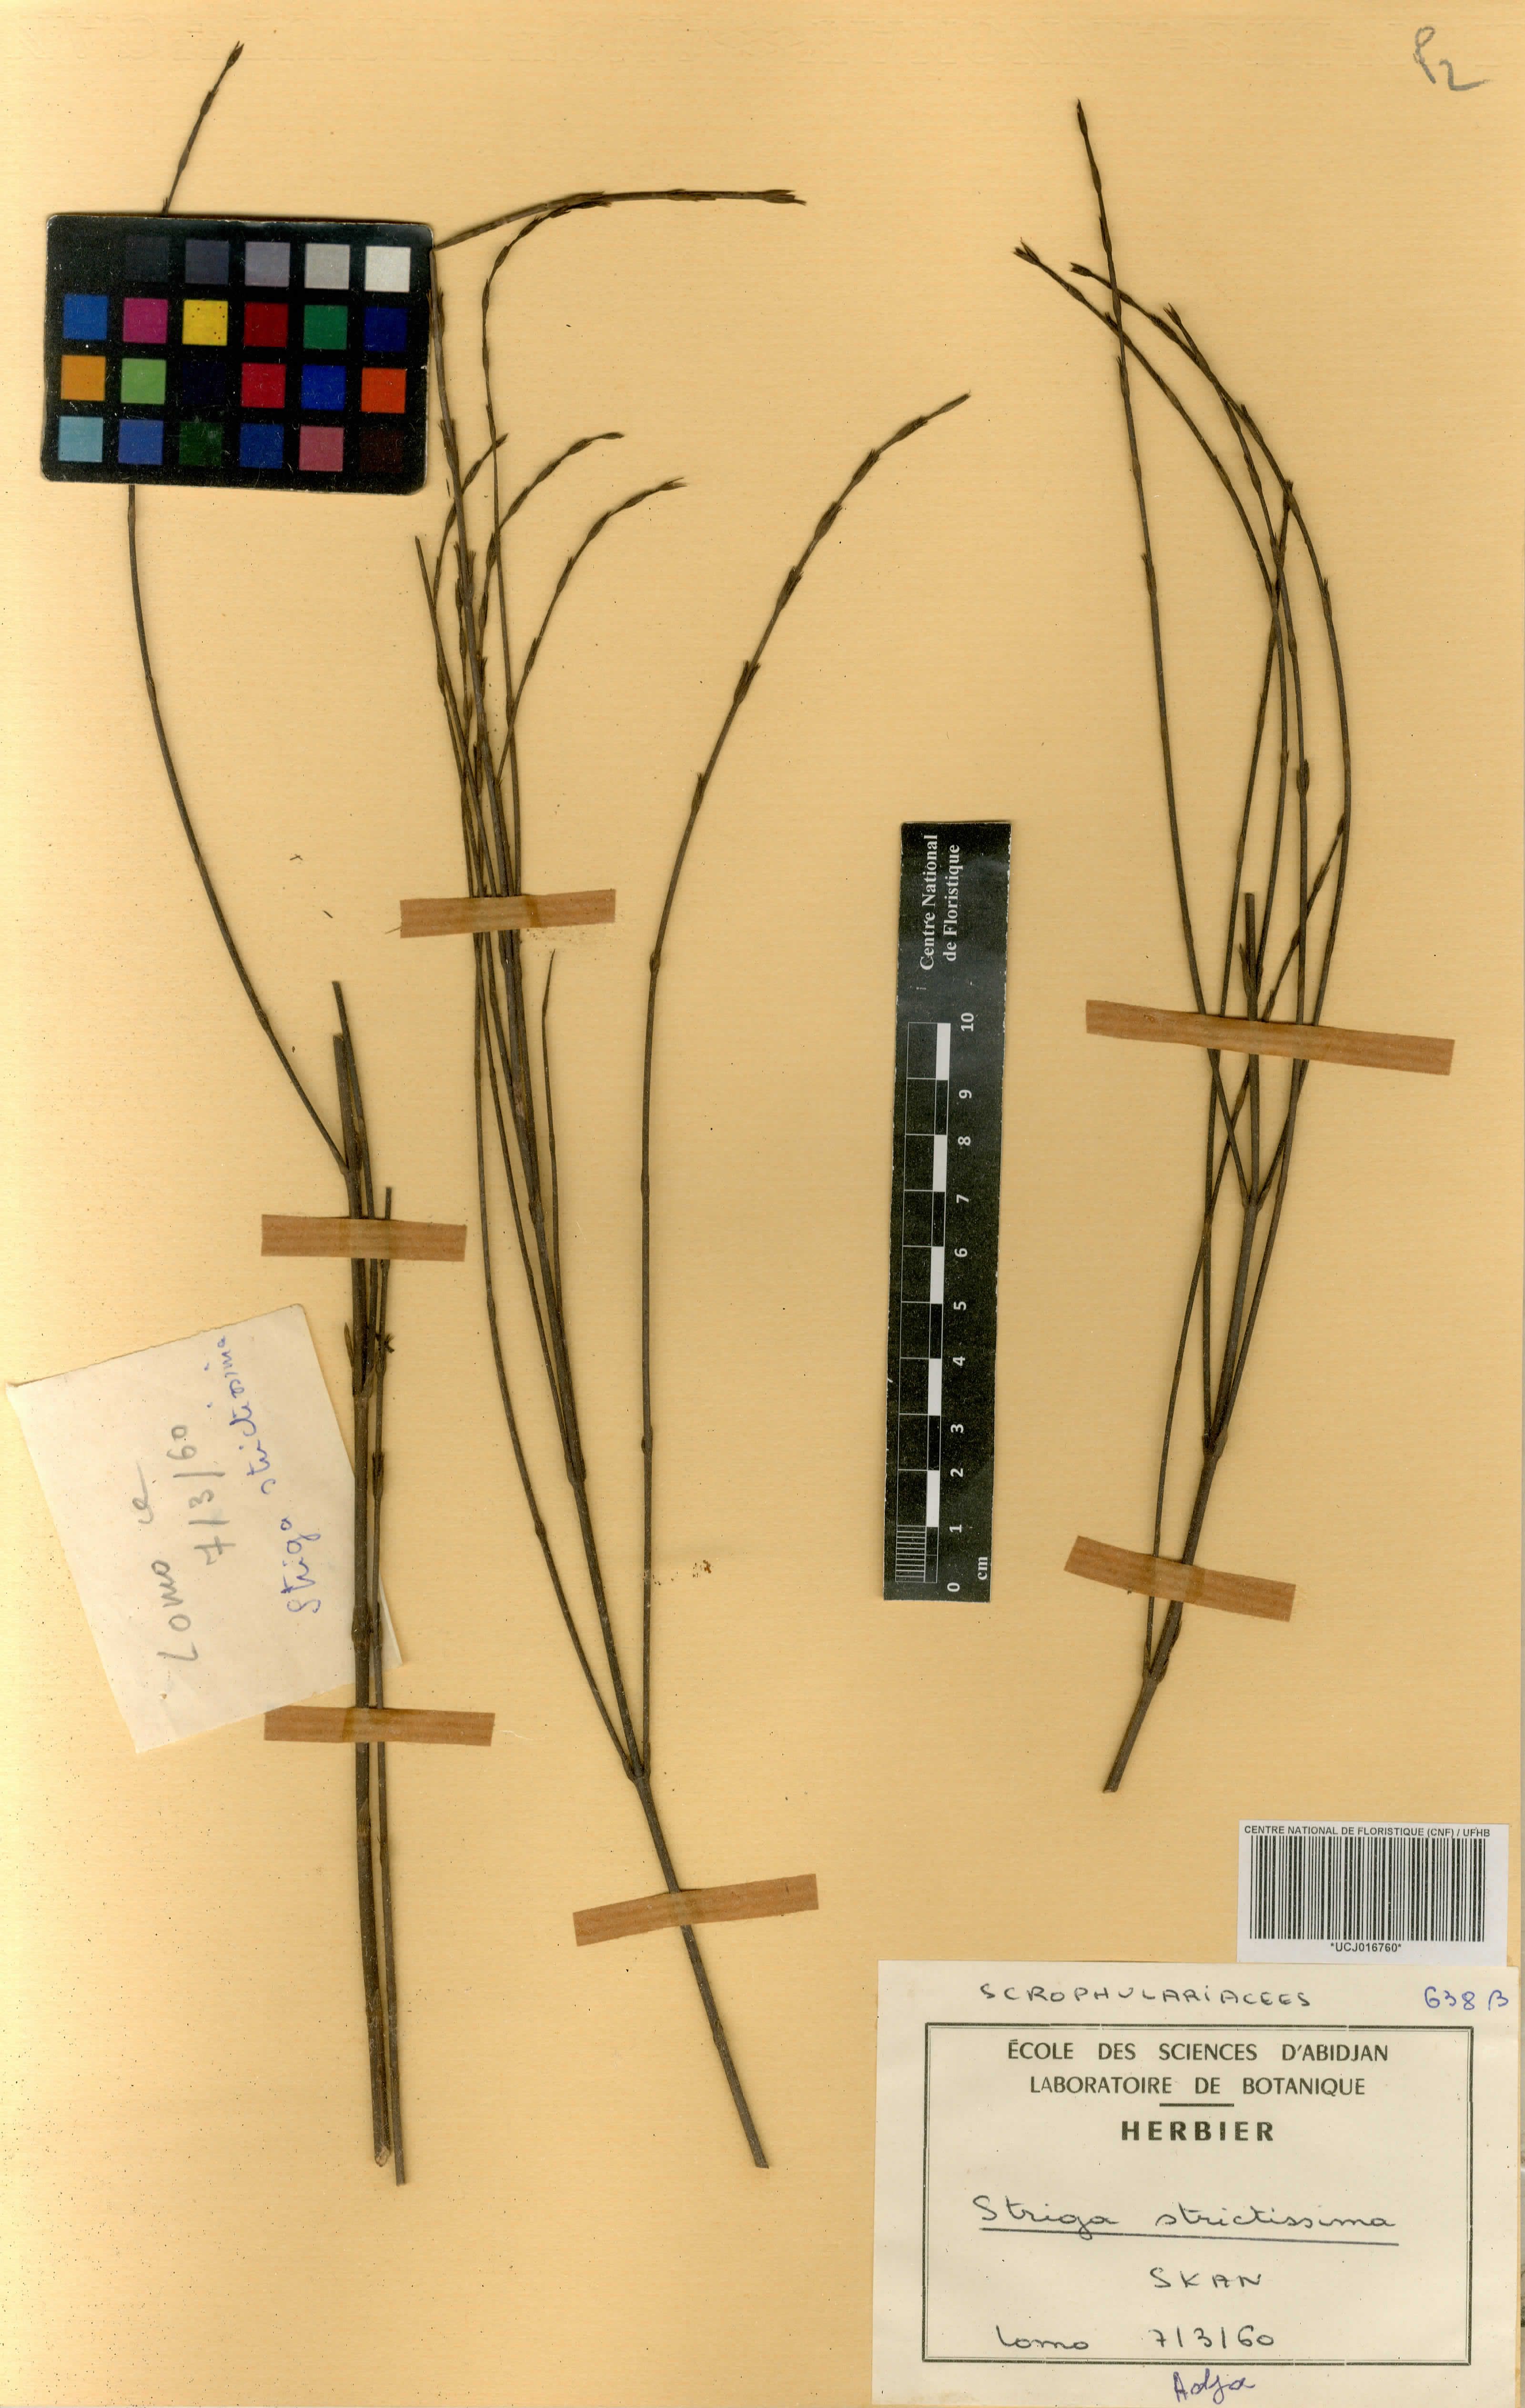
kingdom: Plantae
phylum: Tracheophyta
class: Magnoliopsida
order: Lamiales
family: Orobanchaceae
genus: Striga
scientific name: Striga linearifolia
